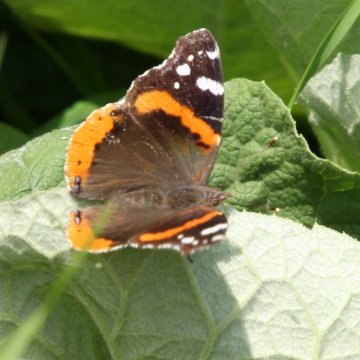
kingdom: Animalia
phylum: Arthropoda
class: Insecta
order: Lepidoptera
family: Nymphalidae
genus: Vanessa
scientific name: Vanessa atalanta
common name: Red Admiral
